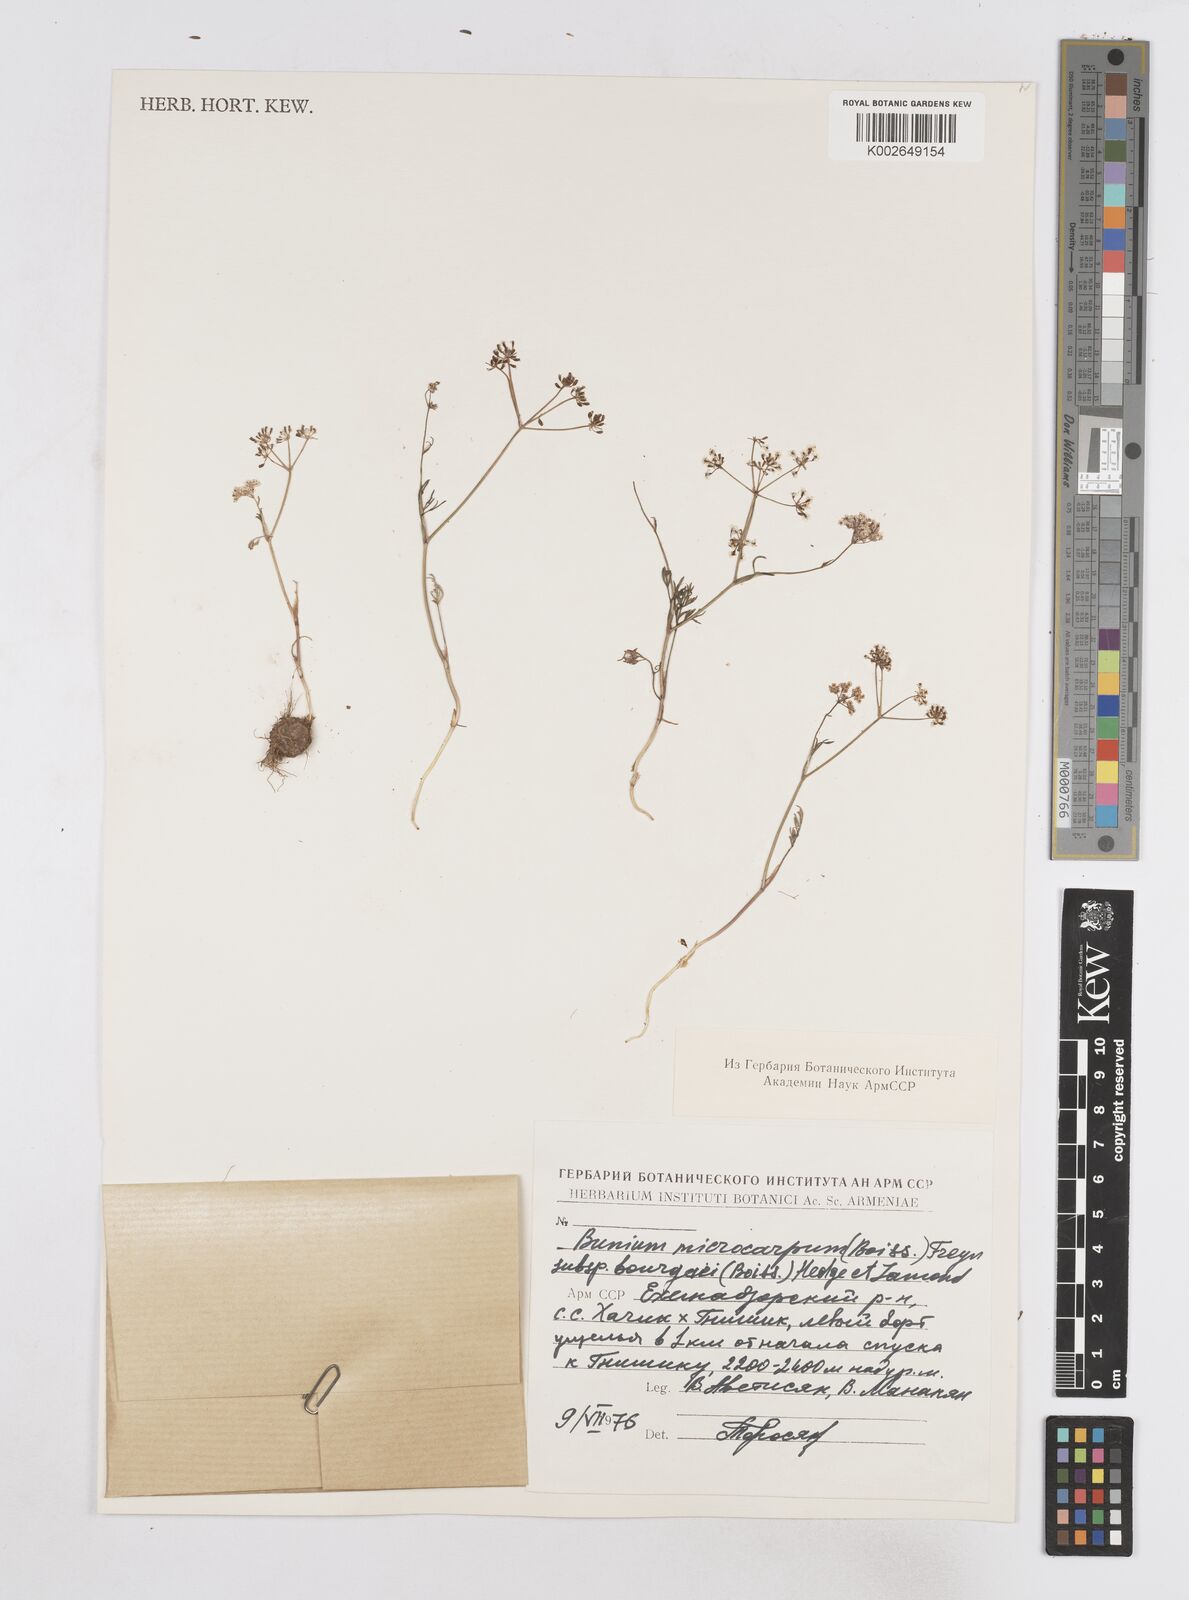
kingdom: Plantae
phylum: Tracheophyta
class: Magnoliopsida
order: Apiales
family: Apiaceae
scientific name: Apiaceae
